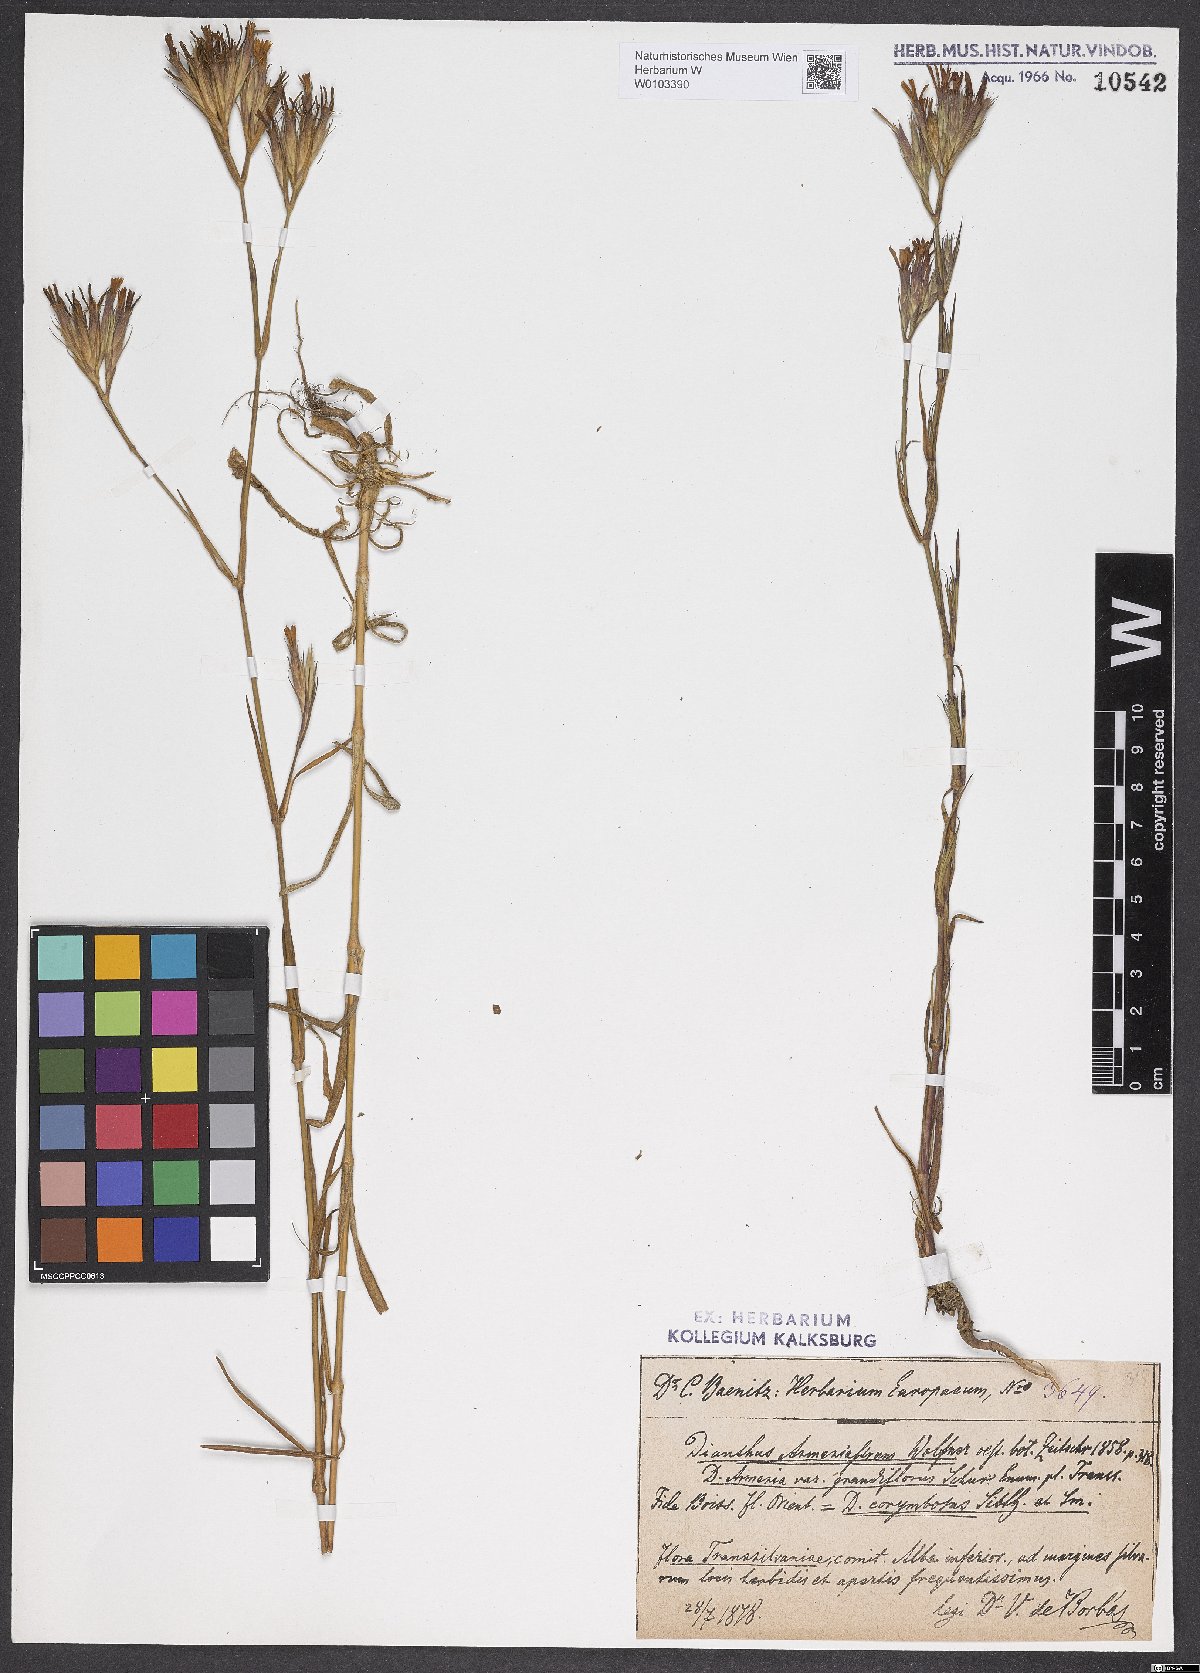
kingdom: Plantae
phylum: Tracheophyta
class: Magnoliopsida
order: Caryophyllales
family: Caryophyllaceae
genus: Dianthus
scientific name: Dianthus corymbosus
